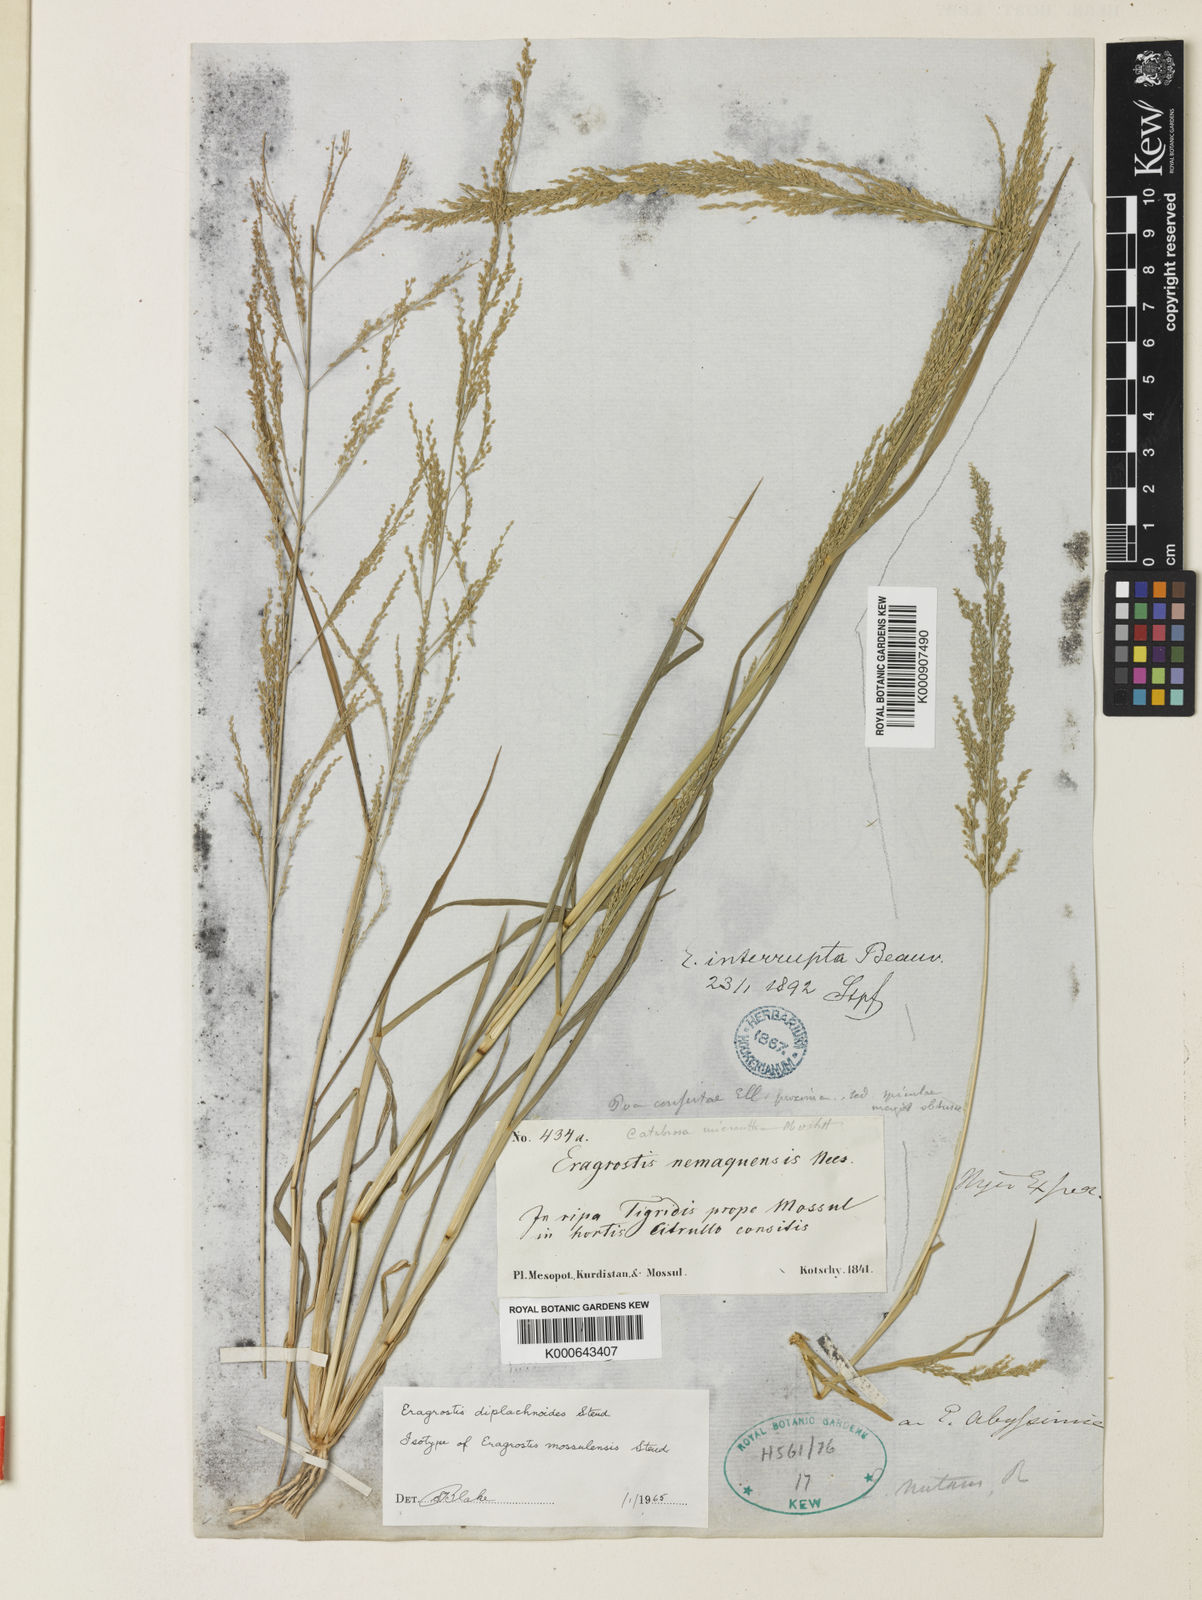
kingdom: Plantae
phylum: Tracheophyta
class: Liliopsida
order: Poales
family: Poaceae
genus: Eragrostis
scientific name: Eragrostis japonica
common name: Pond lovegrass
